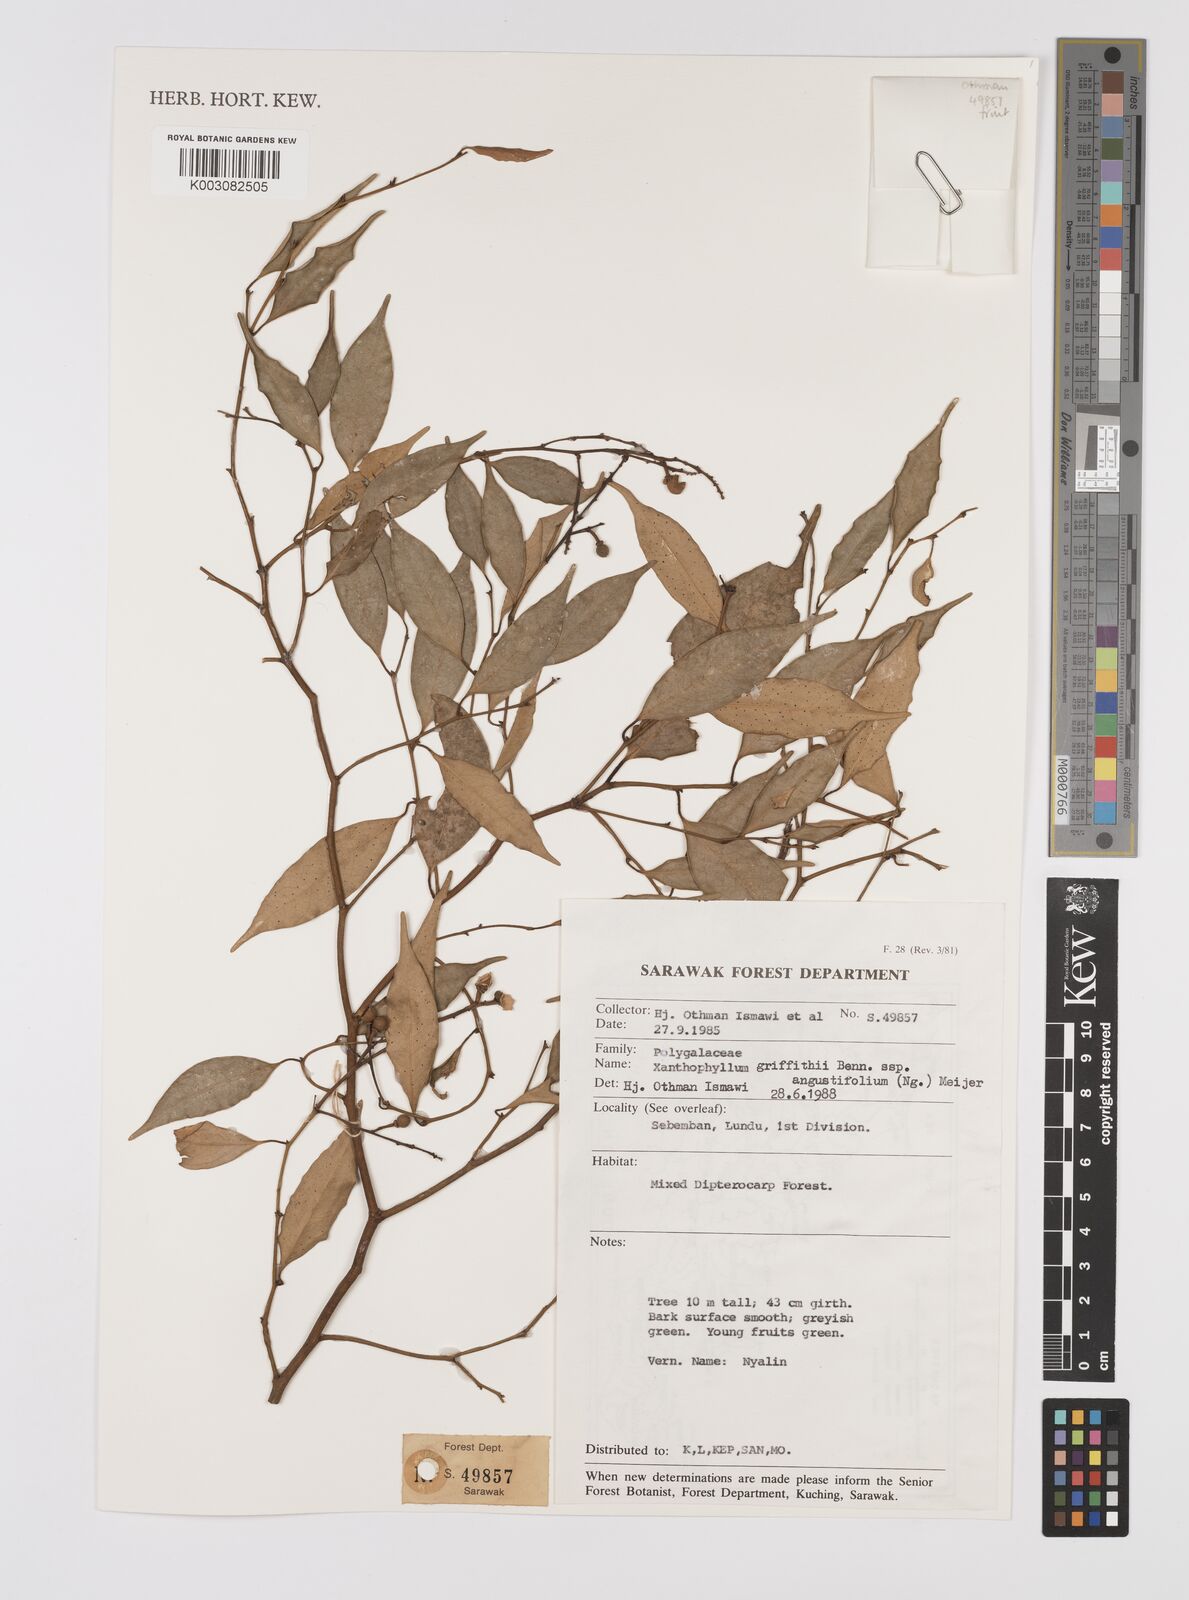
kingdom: Plantae
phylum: Tracheophyta
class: Magnoliopsida
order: Fabales
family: Polygalaceae
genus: Xanthophyllum
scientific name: Xanthophyllum griffithii
